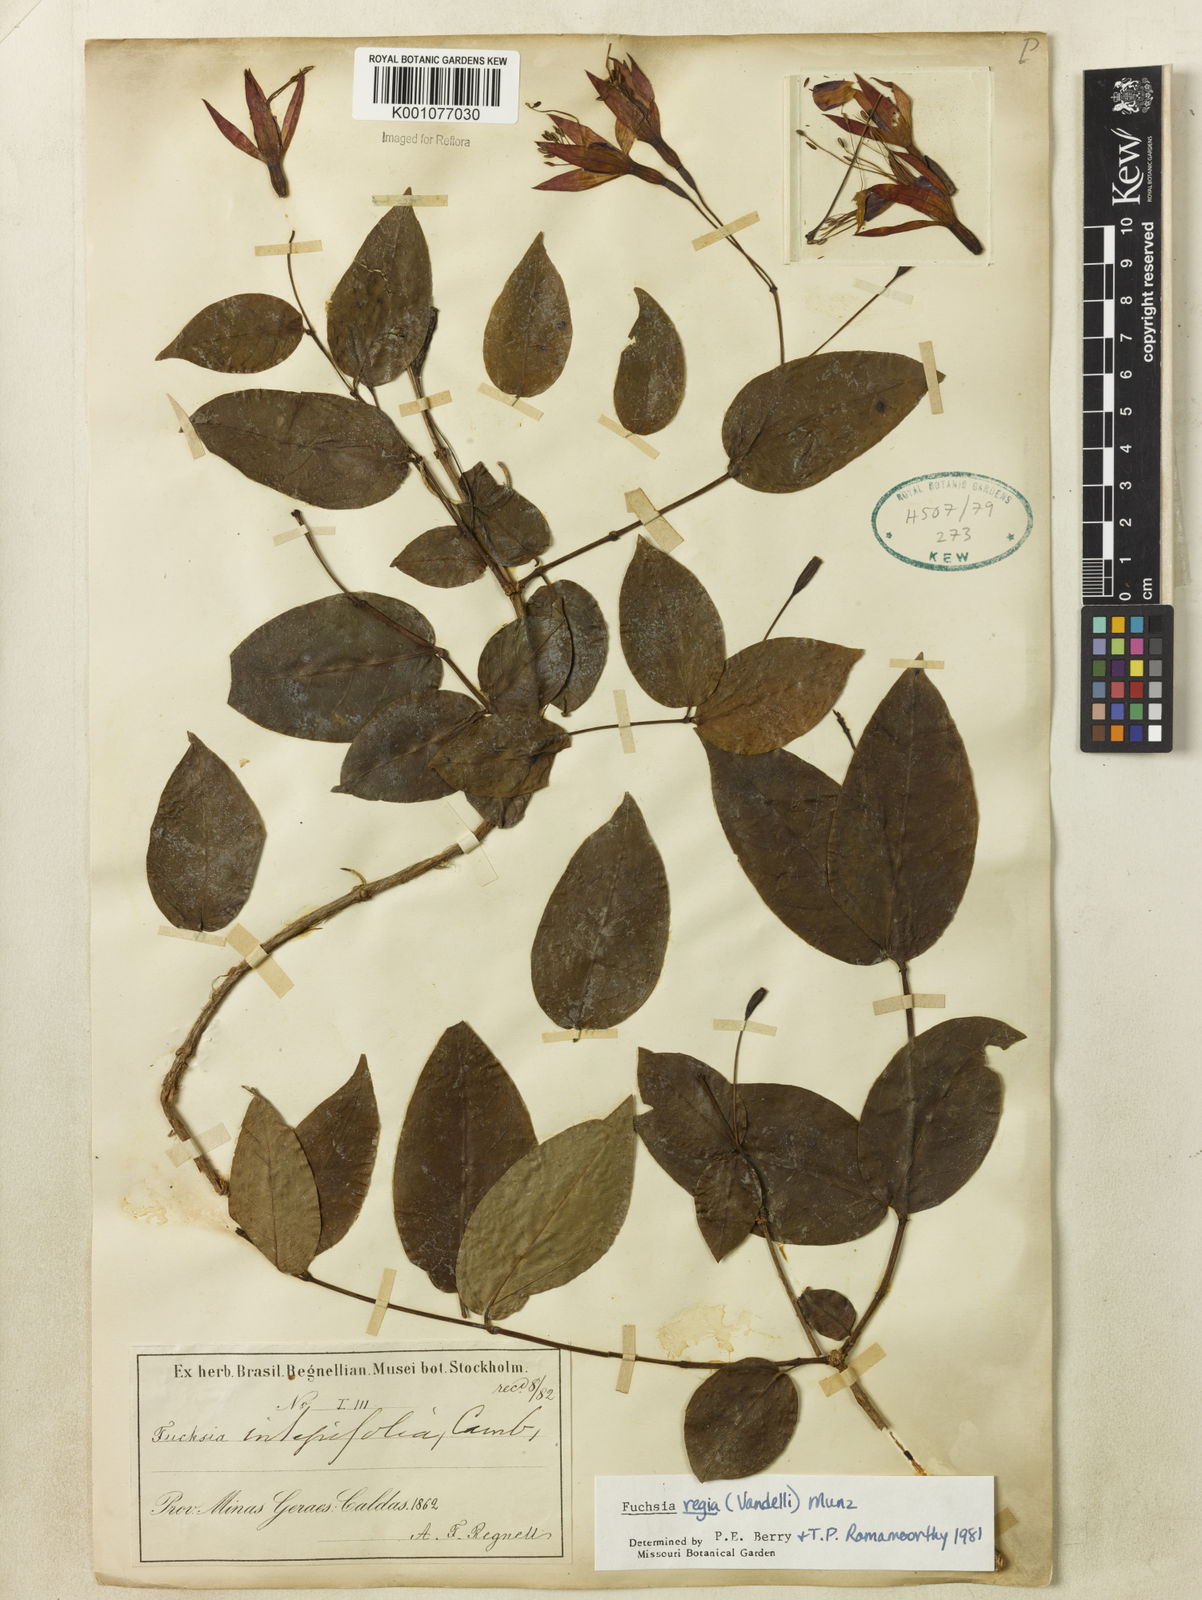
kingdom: Plantae
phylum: Tracheophyta
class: Magnoliopsida
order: Myrtales
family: Onagraceae
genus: Fuchsia
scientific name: Fuchsia regia
